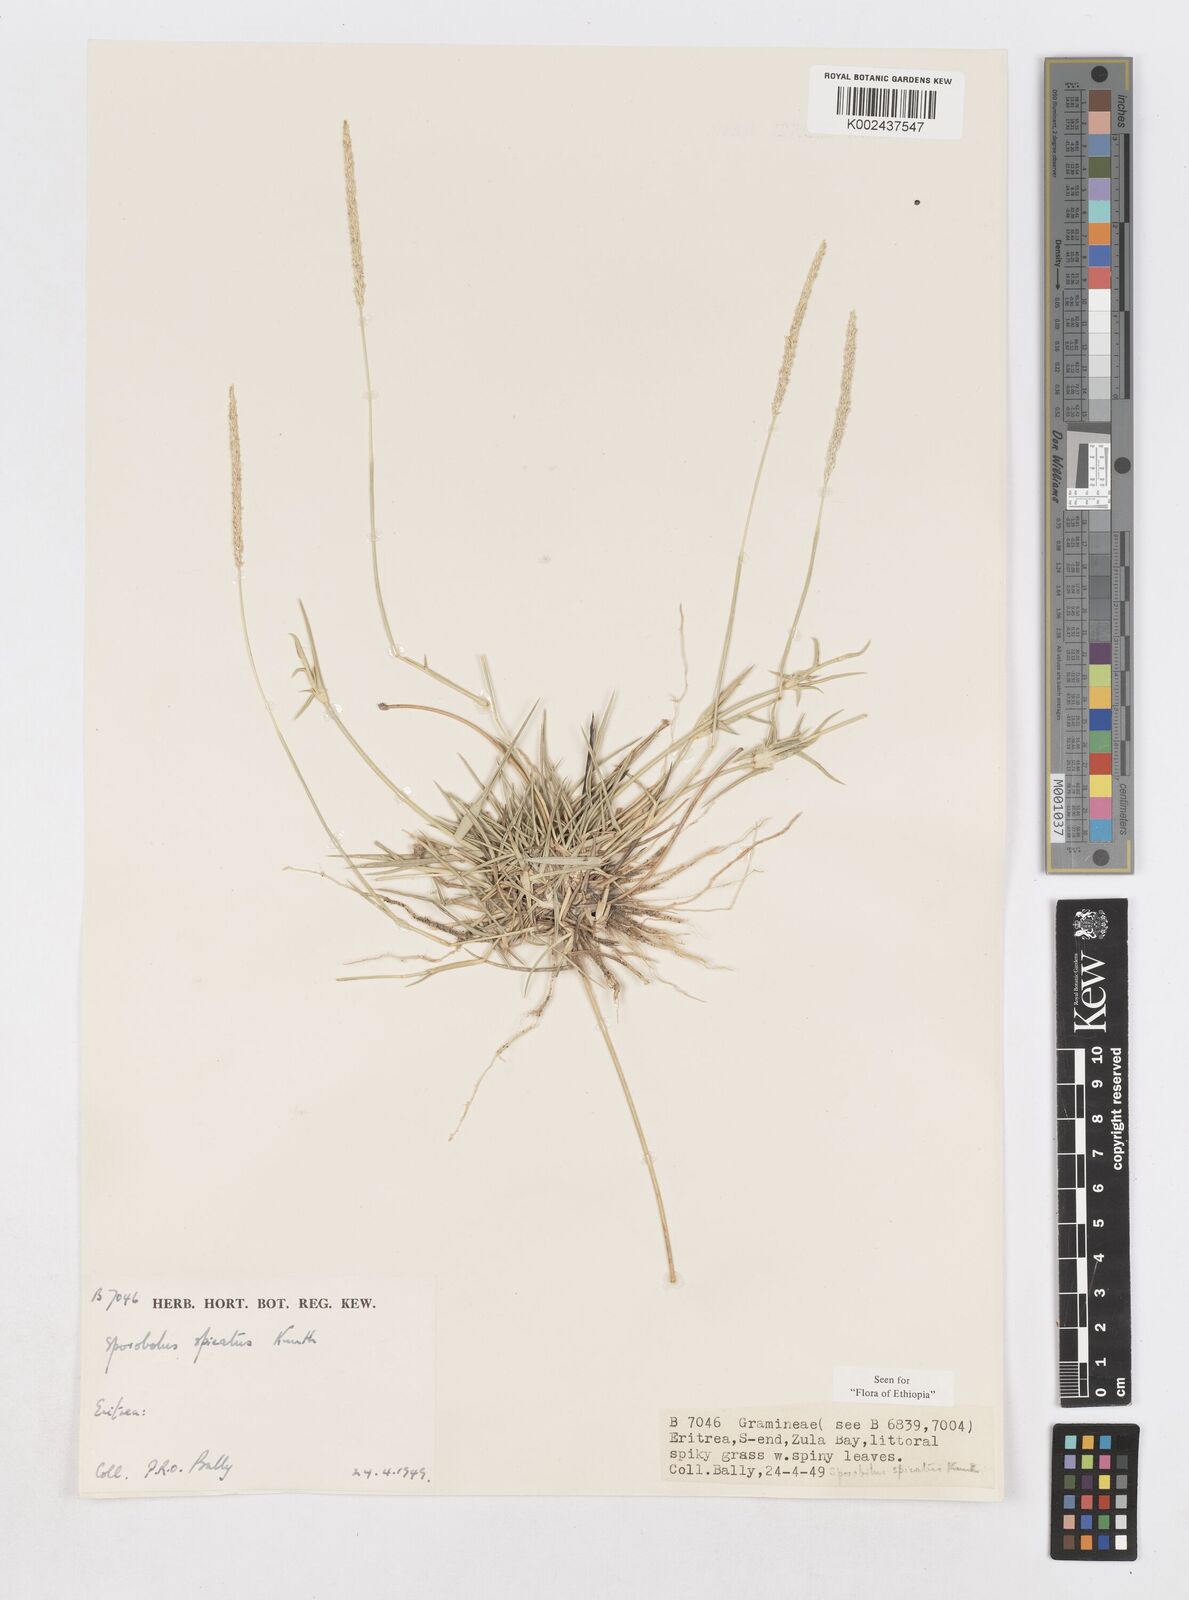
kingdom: Plantae
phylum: Tracheophyta
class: Liliopsida
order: Poales
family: Poaceae
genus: Sporobolus
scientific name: Sporobolus spicatus
